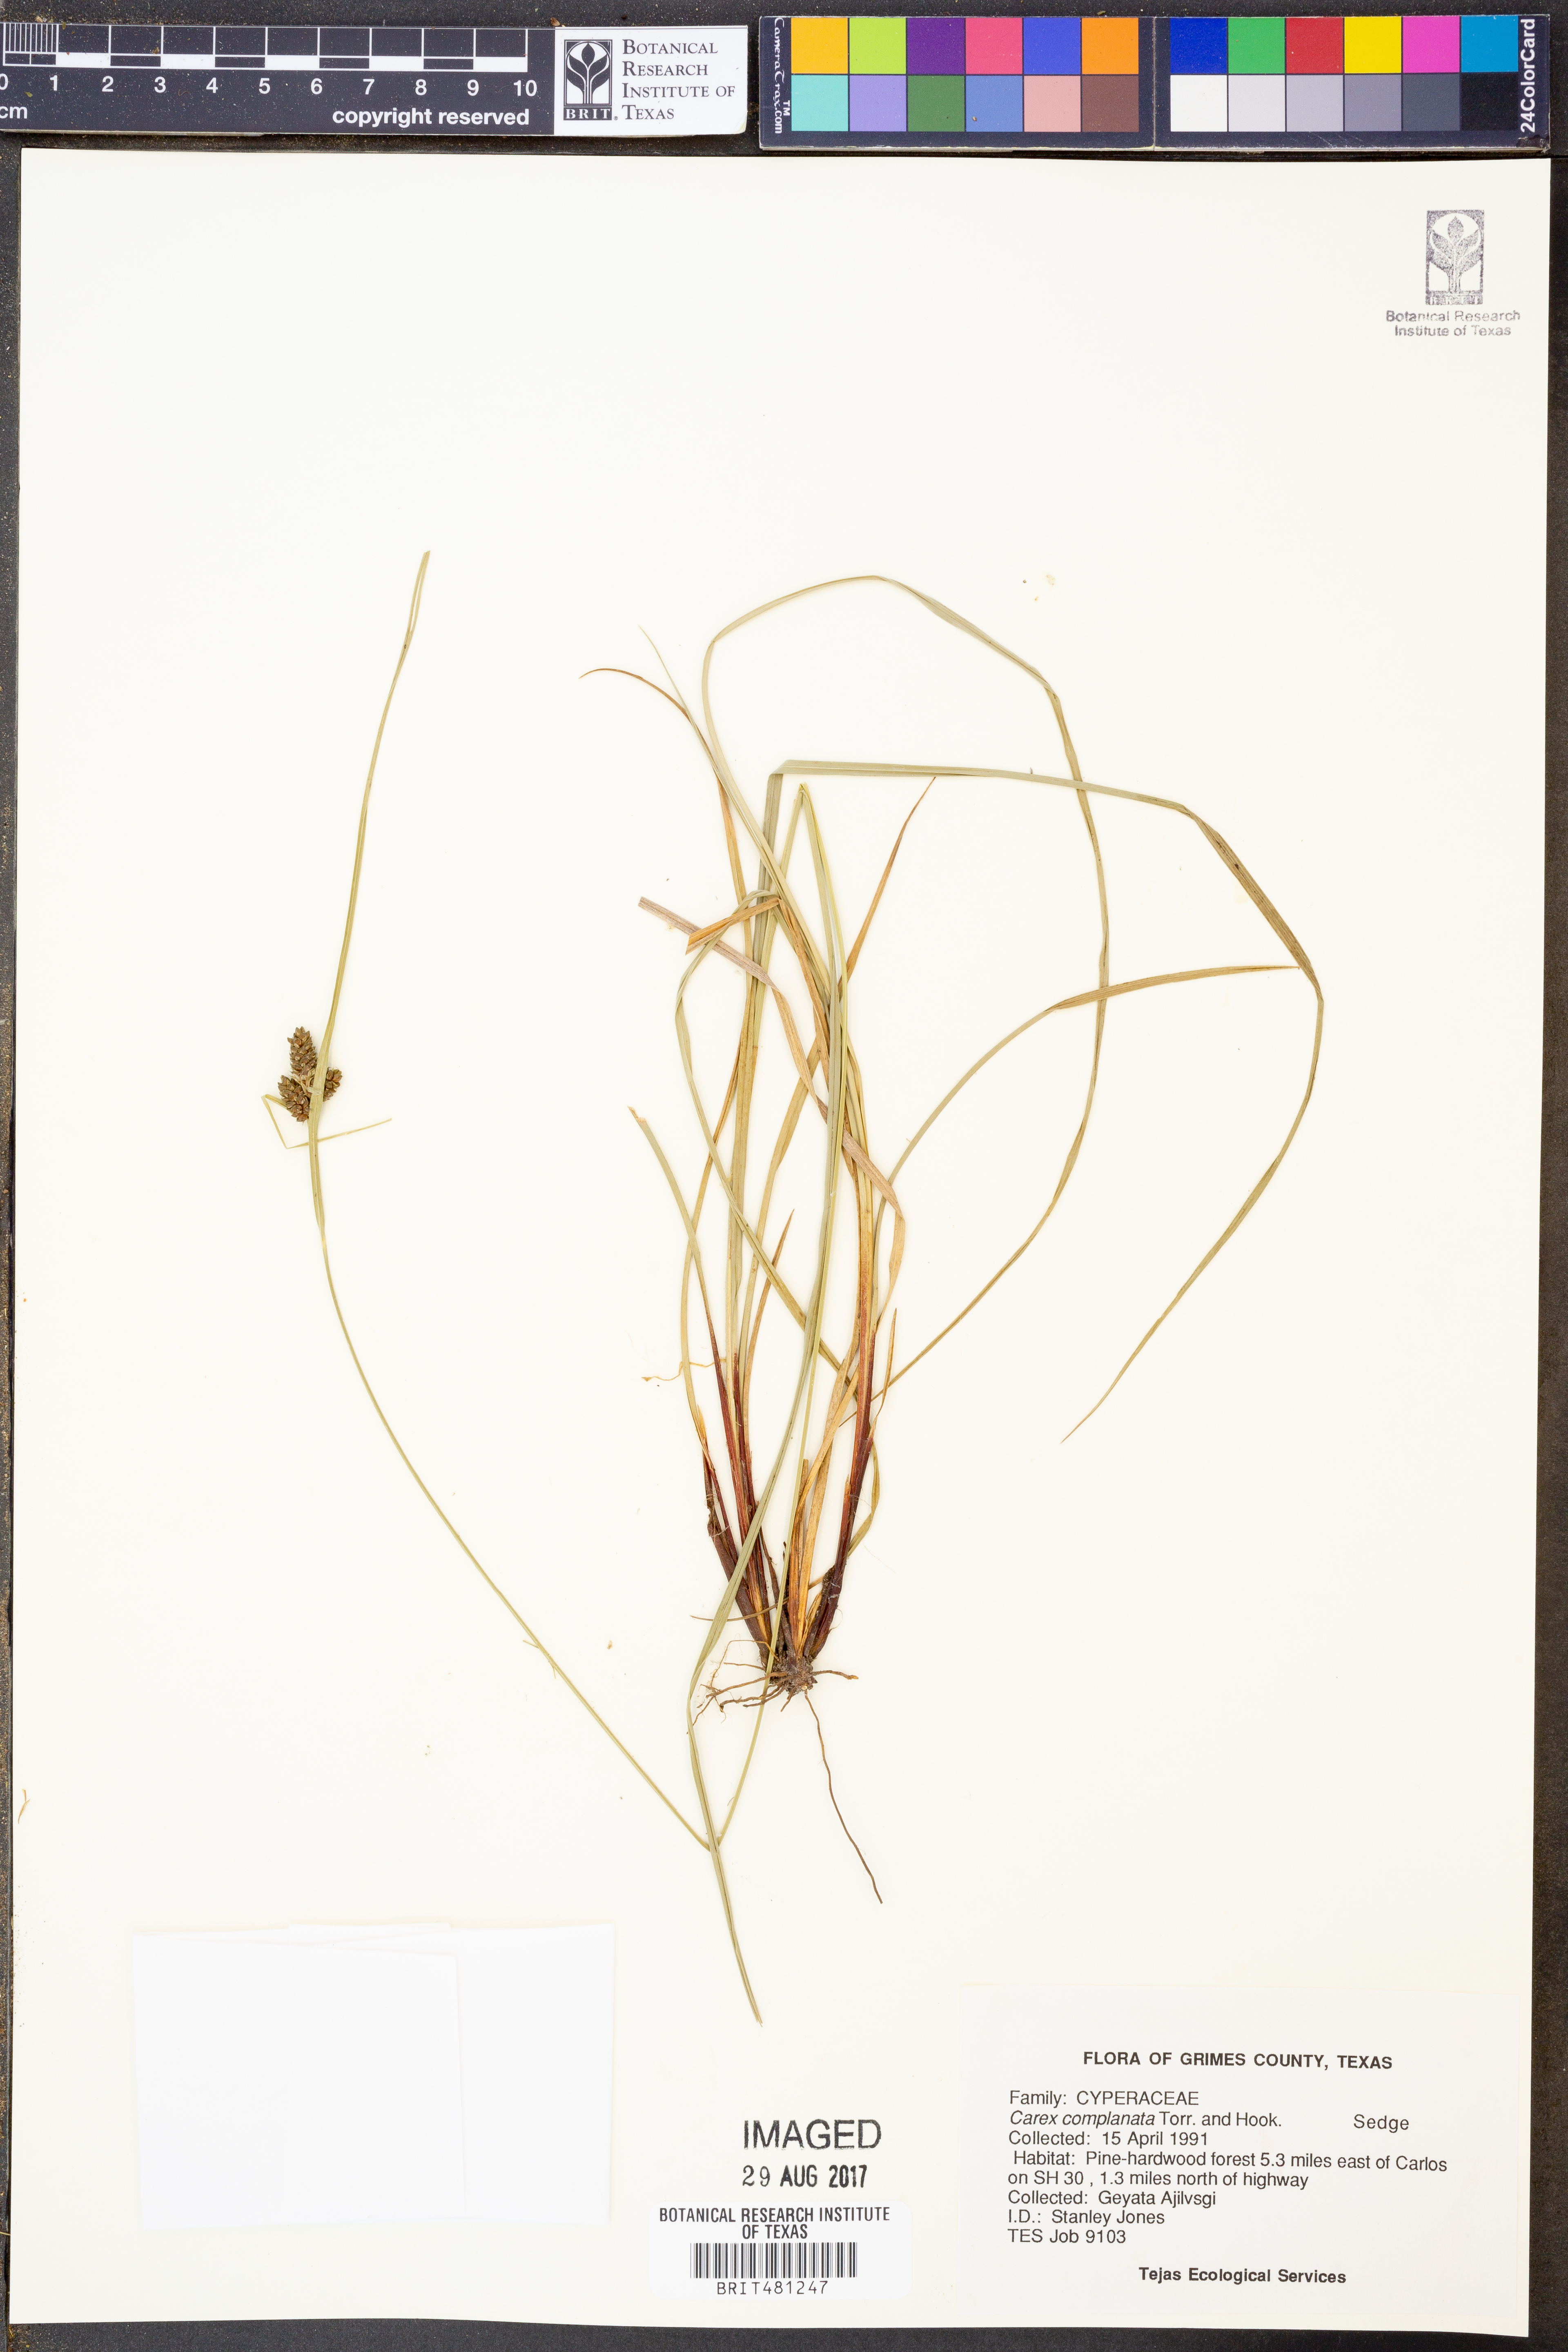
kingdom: Plantae
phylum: Tracheophyta
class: Liliopsida
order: Poales
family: Cyperaceae
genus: Carex
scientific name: Carex complanata
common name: Hirsute sedge
